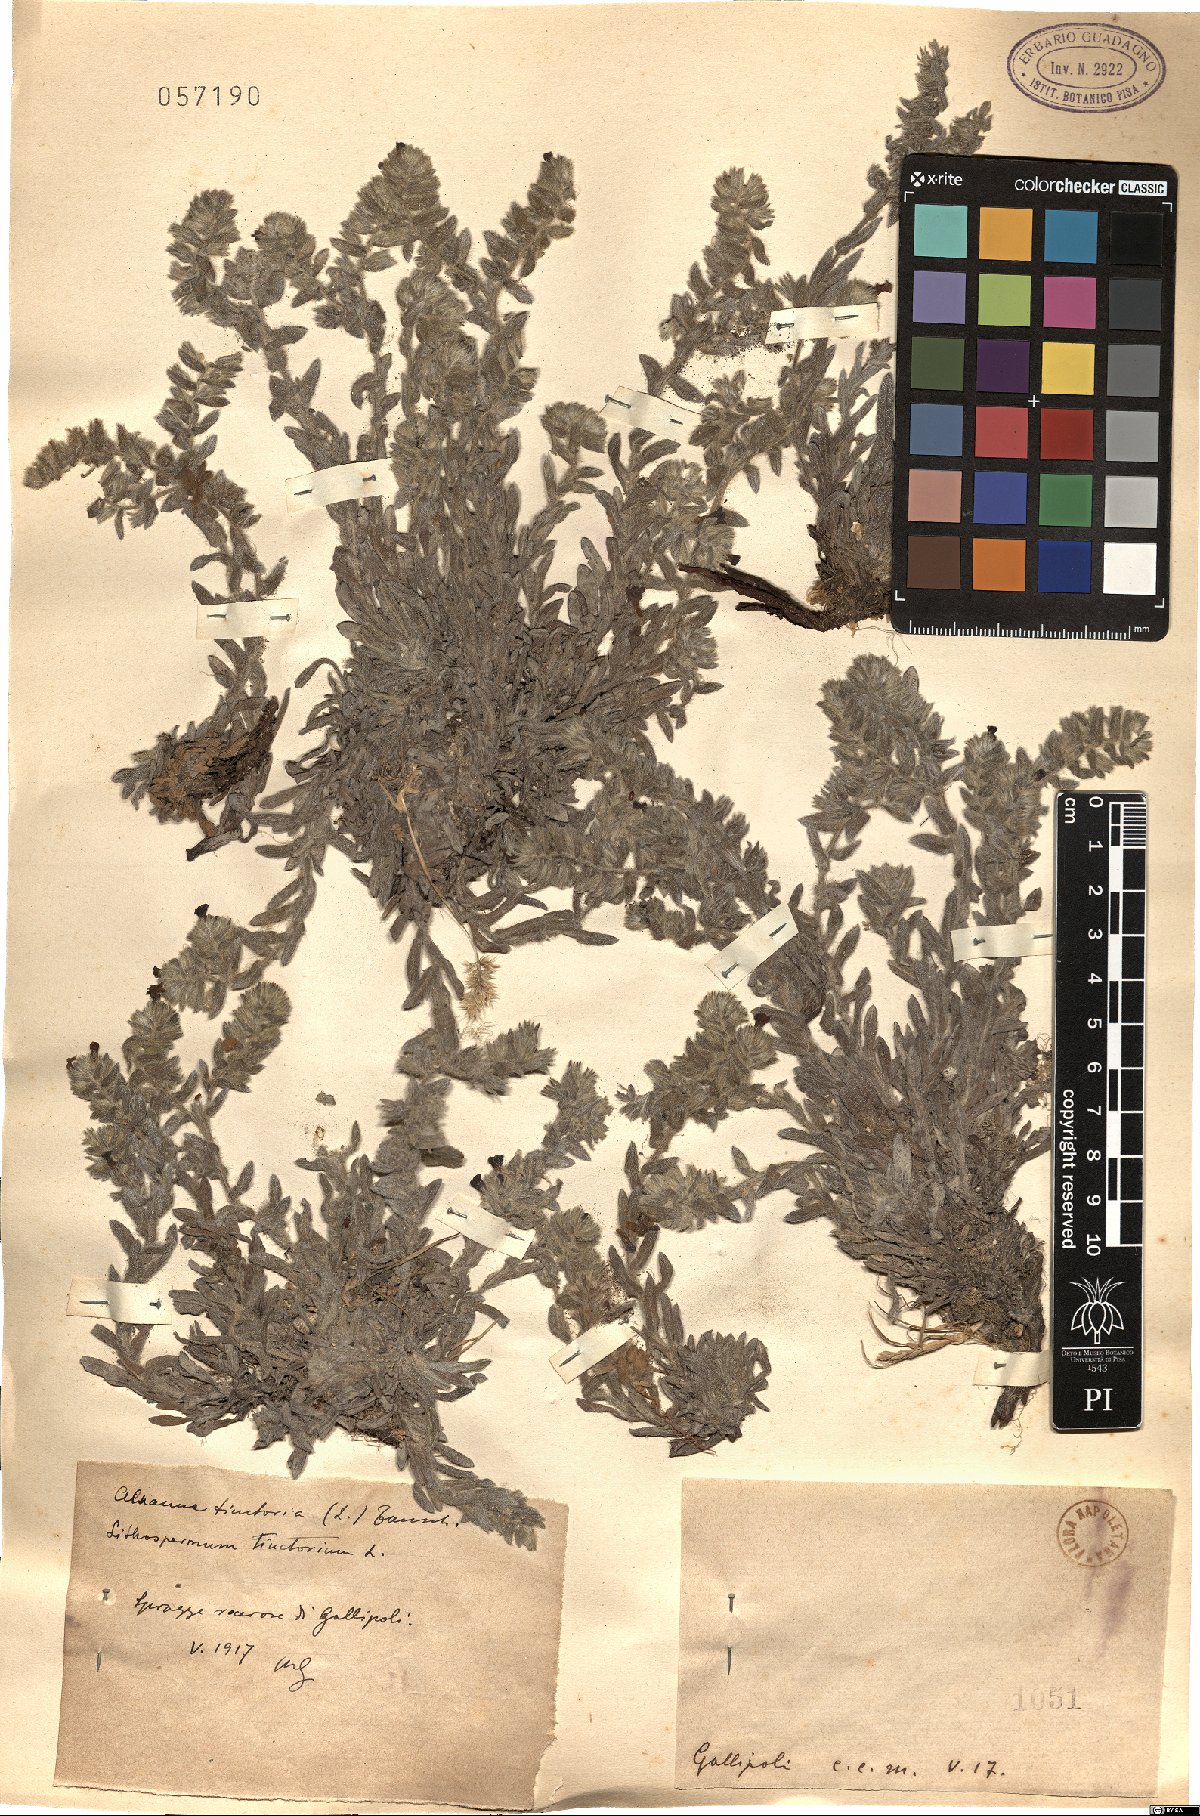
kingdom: Plantae
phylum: Tracheophyta
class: Magnoliopsida
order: Boraginales
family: Boraginaceae
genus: Alkanna
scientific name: Alkanna tinctoria
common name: Dyer's-alkanet
